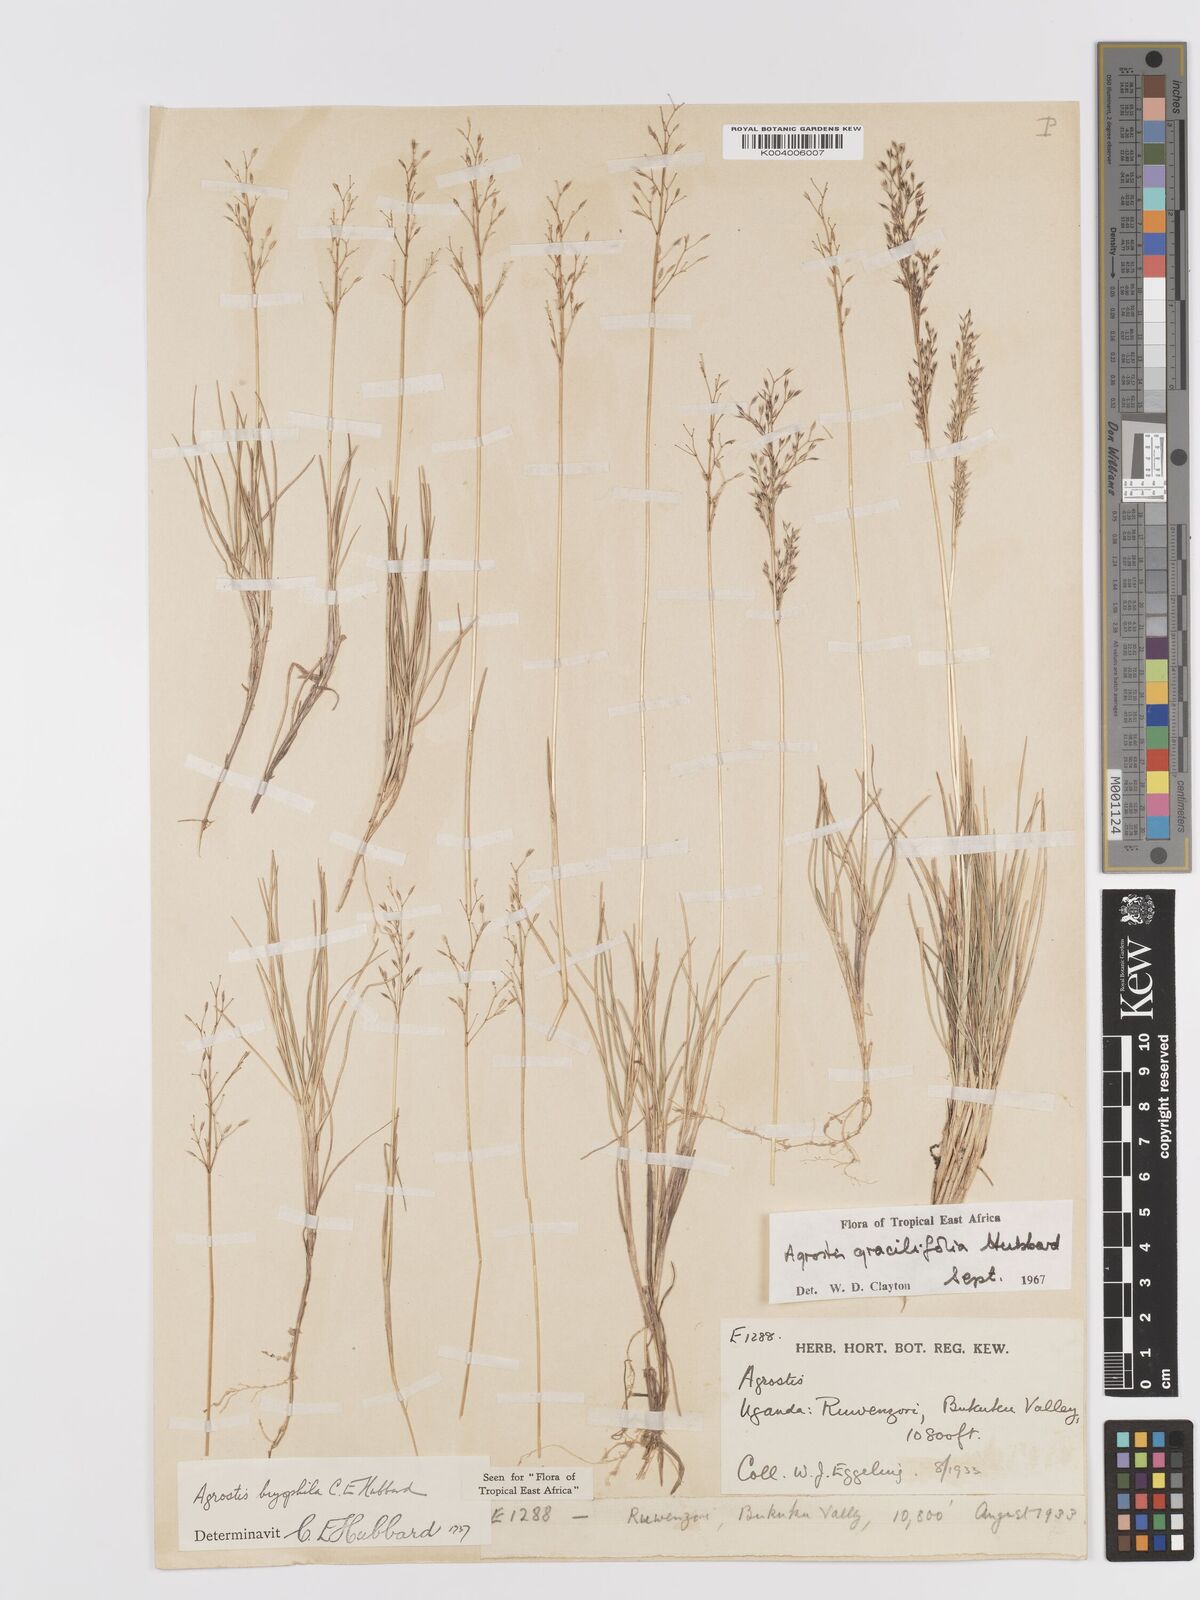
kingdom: Plantae
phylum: Tracheophyta
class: Liliopsida
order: Poales
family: Poaceae
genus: Agrostis
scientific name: Agrostis gracilifolia
